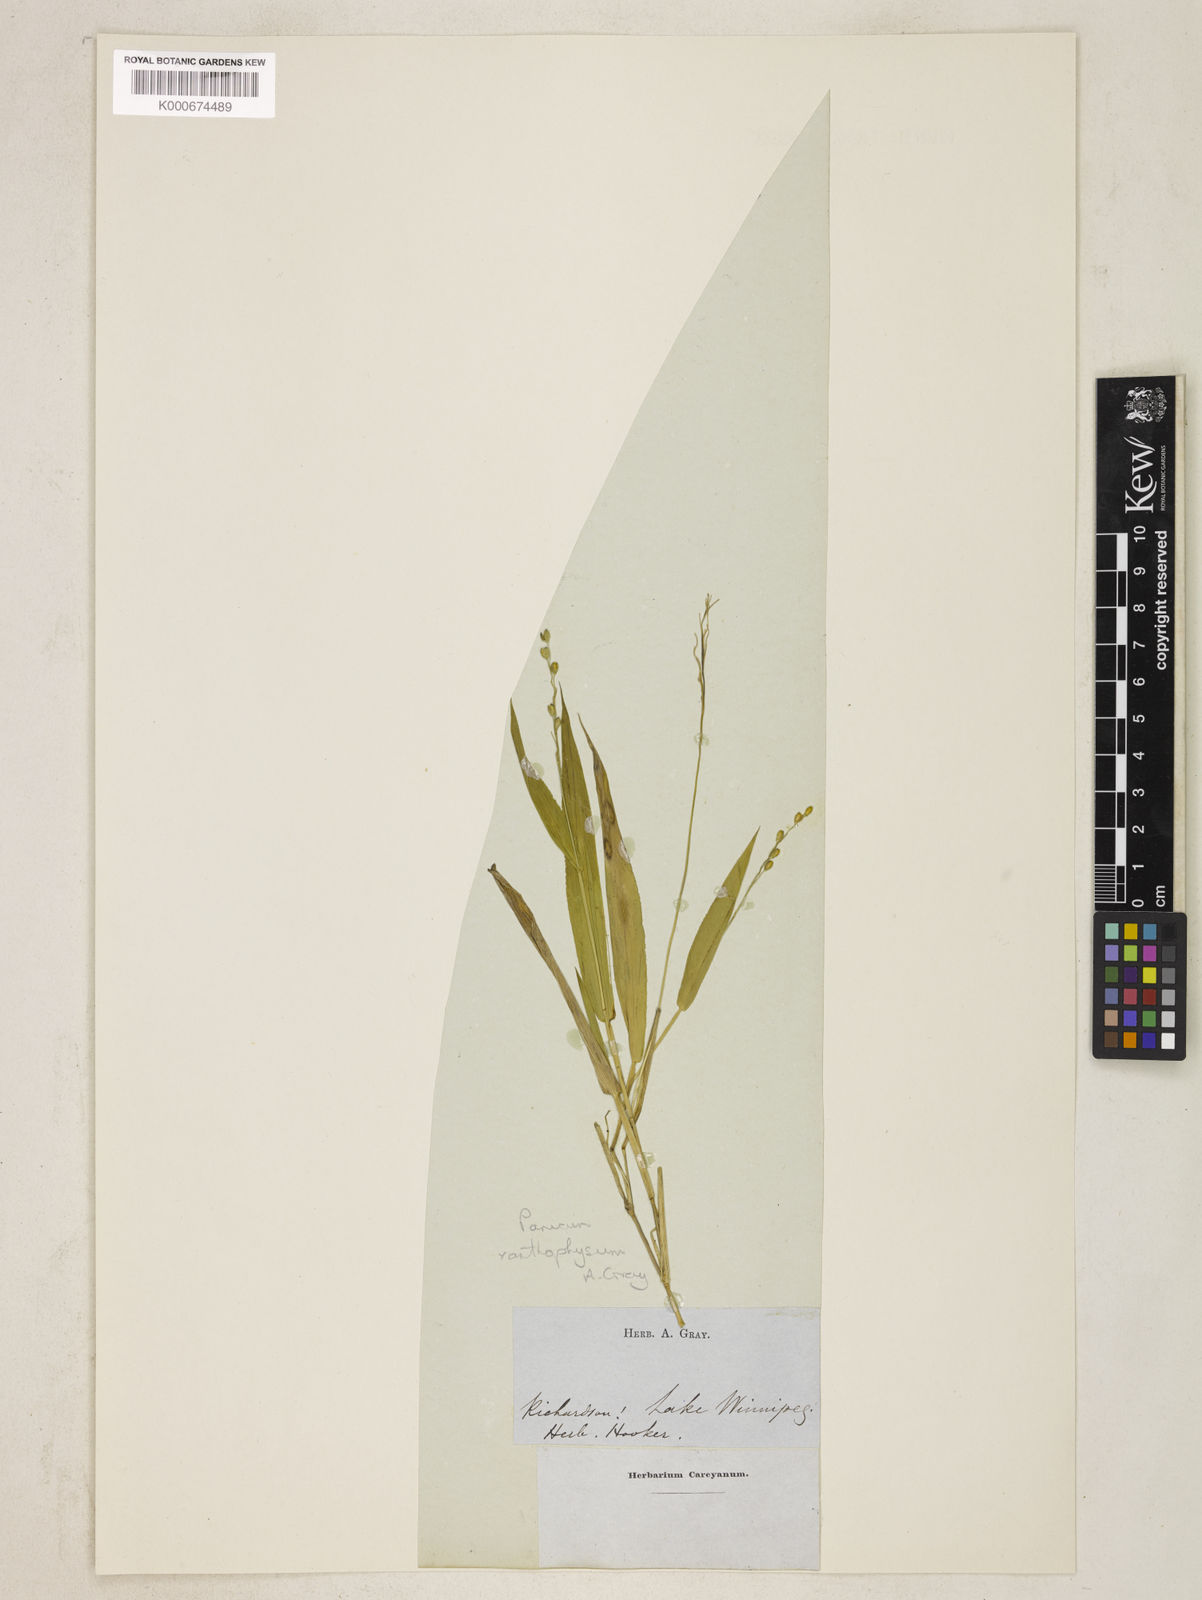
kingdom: Plantae
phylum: Tracheophyta
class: Liliopsida
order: Poales
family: Poaceae
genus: Dichanthelium
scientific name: Dichanthelium xanthophysum
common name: Pale panicgrass
